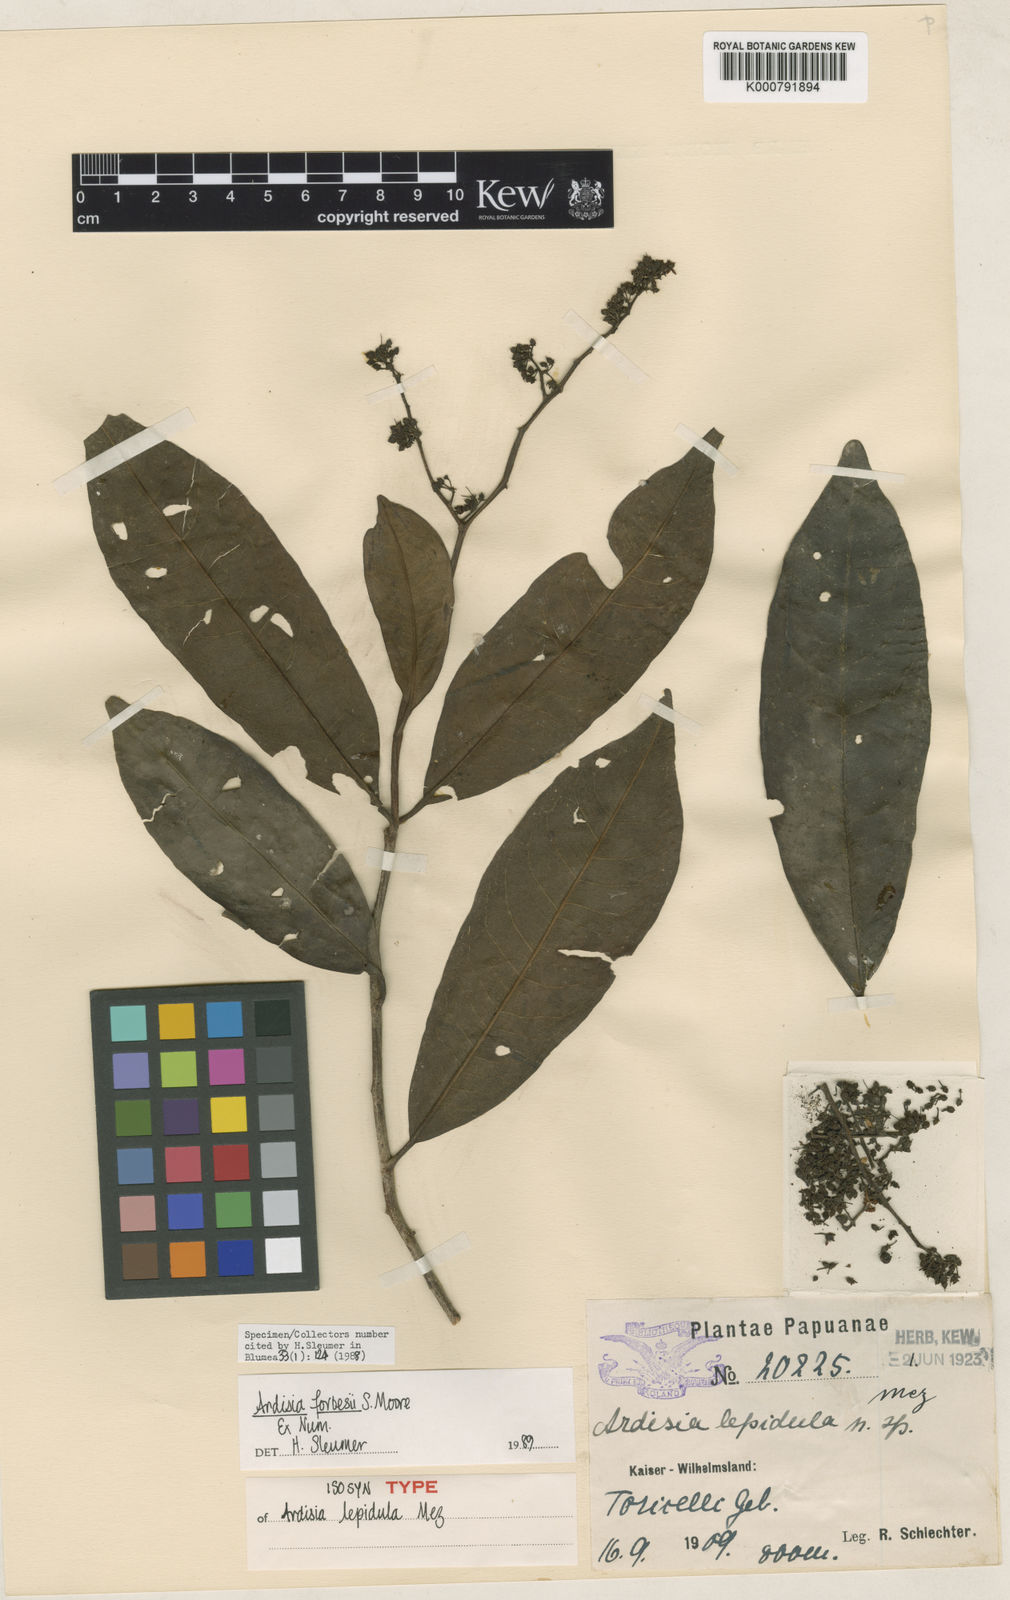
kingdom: Plantae
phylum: Tracheophyta
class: Magnoliopsida
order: Ericales
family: Primulaceae
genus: Ardisia
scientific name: Ardisia forbesii
